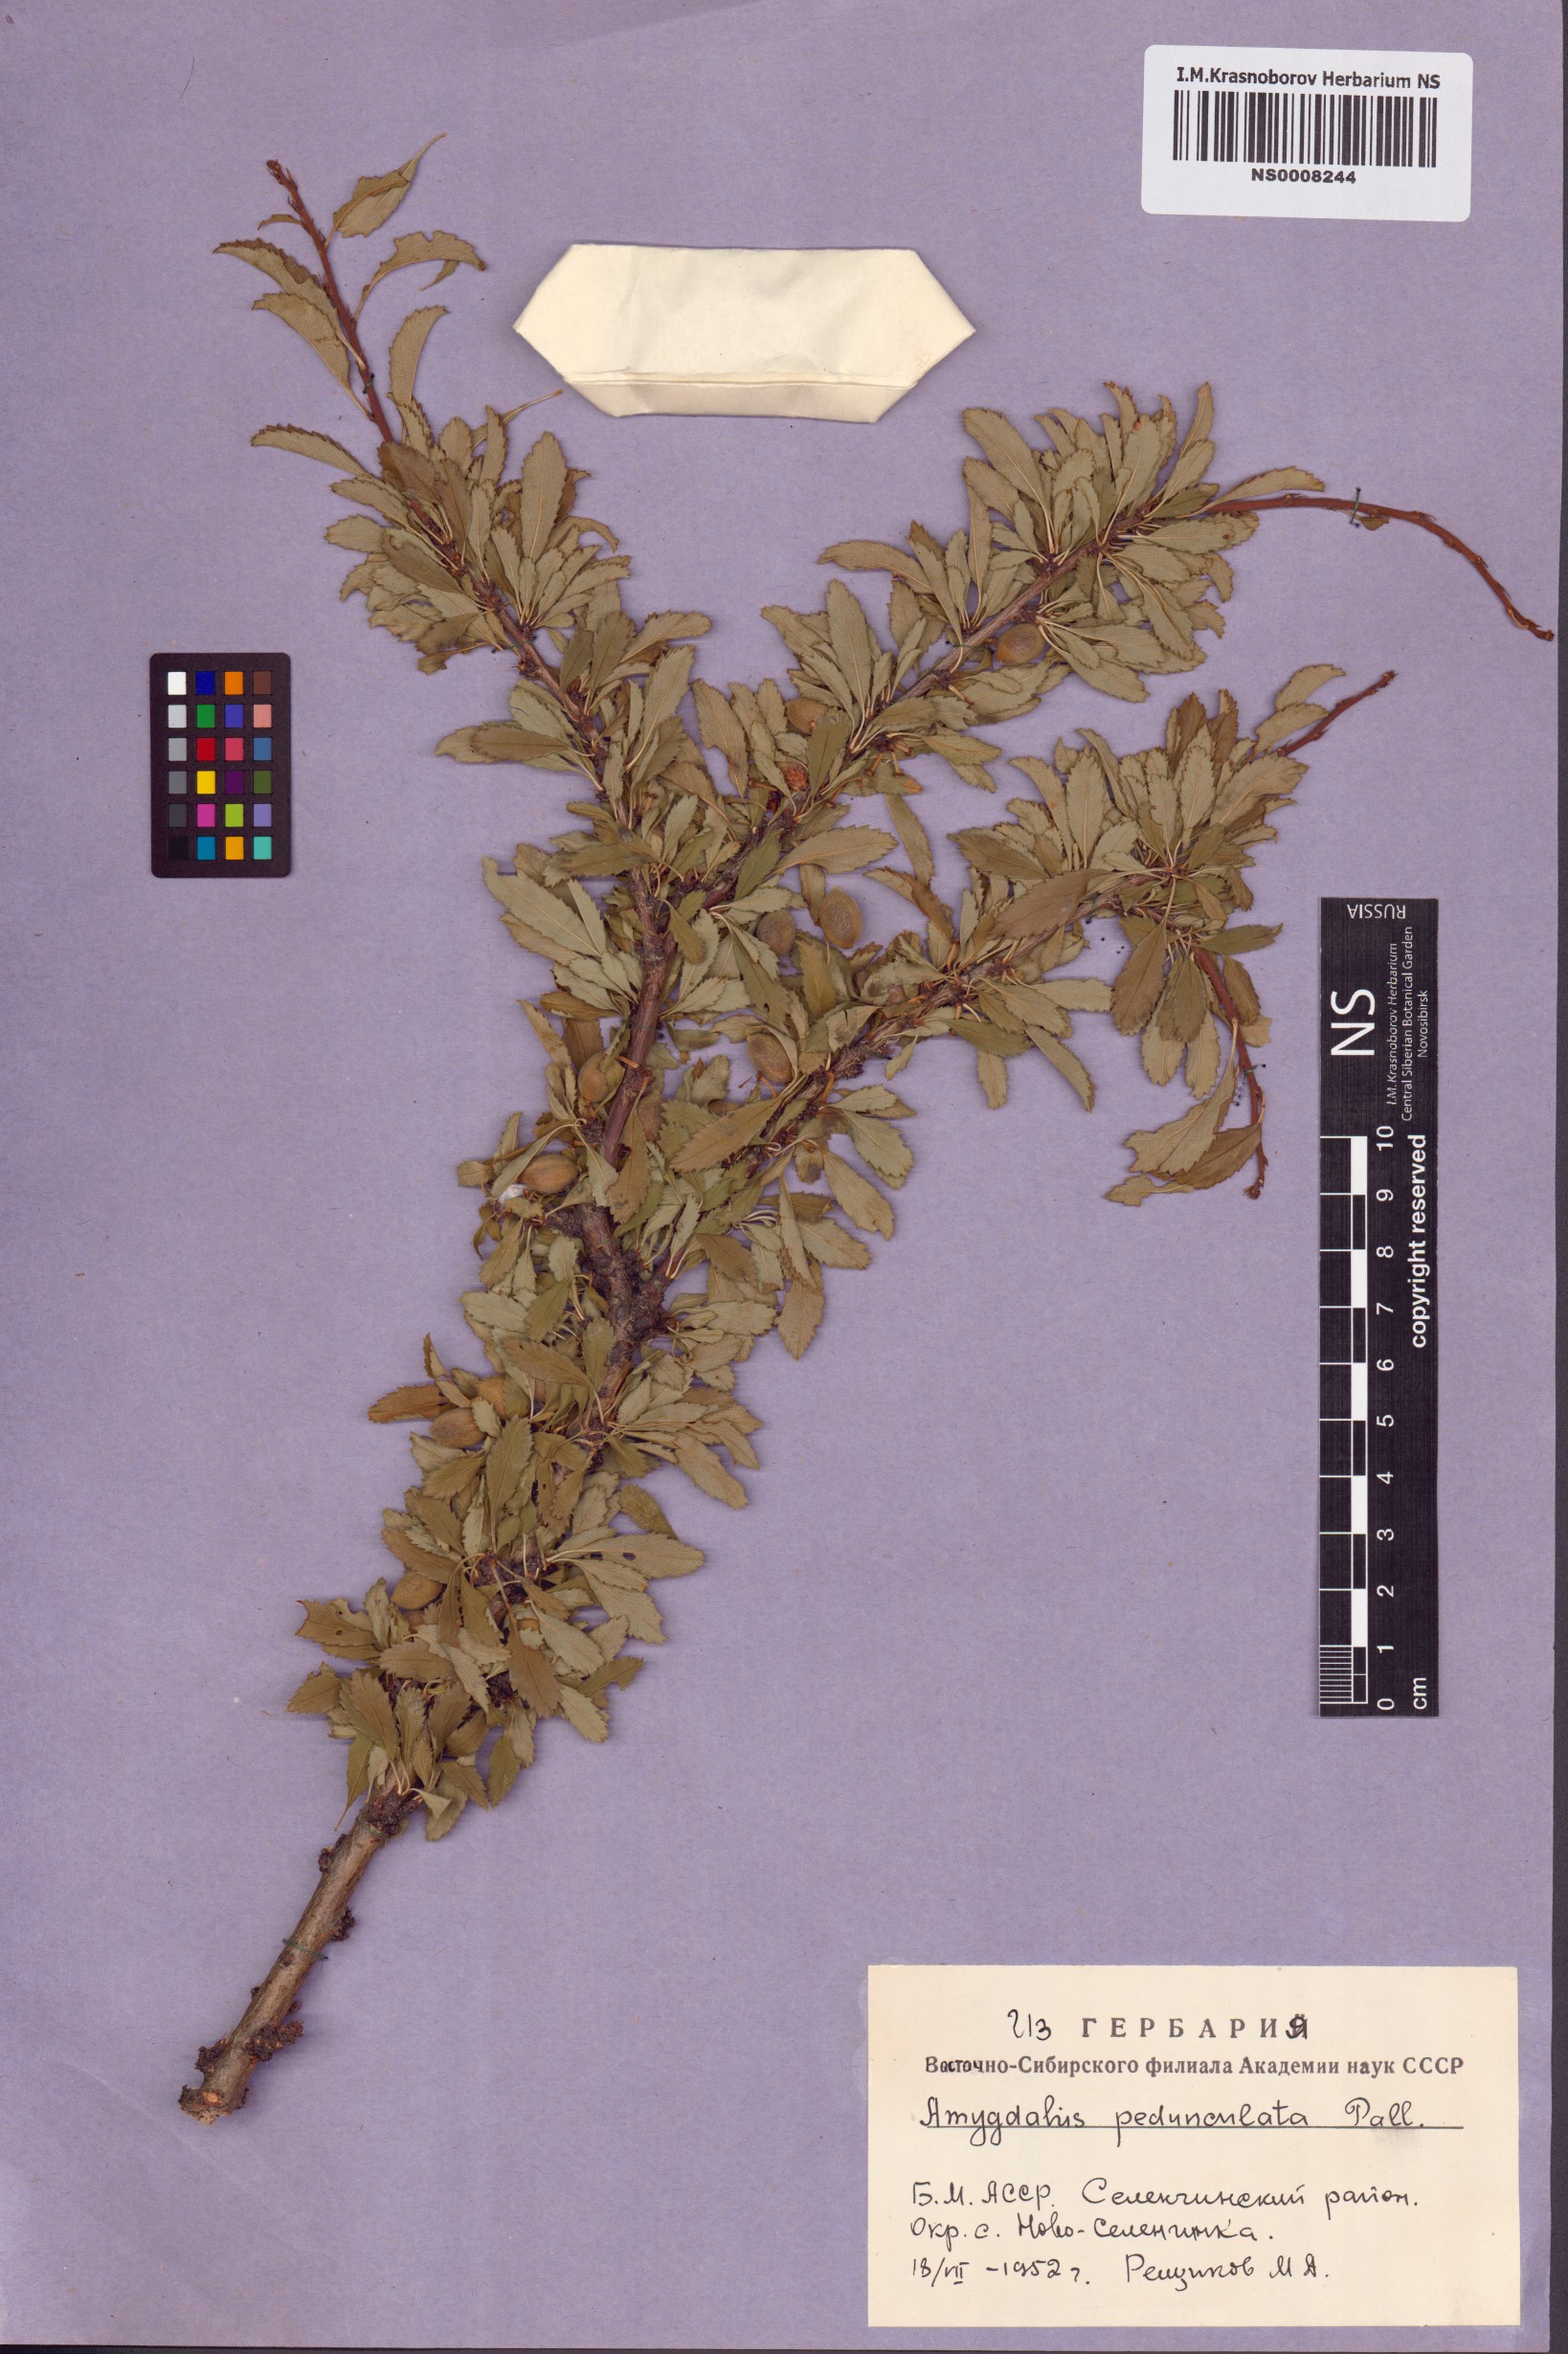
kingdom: Plantae
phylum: Tracheophyta
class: Magnoliopsida
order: Rosales
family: Rosaceae
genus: Prunus
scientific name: Prunus pedunculata
